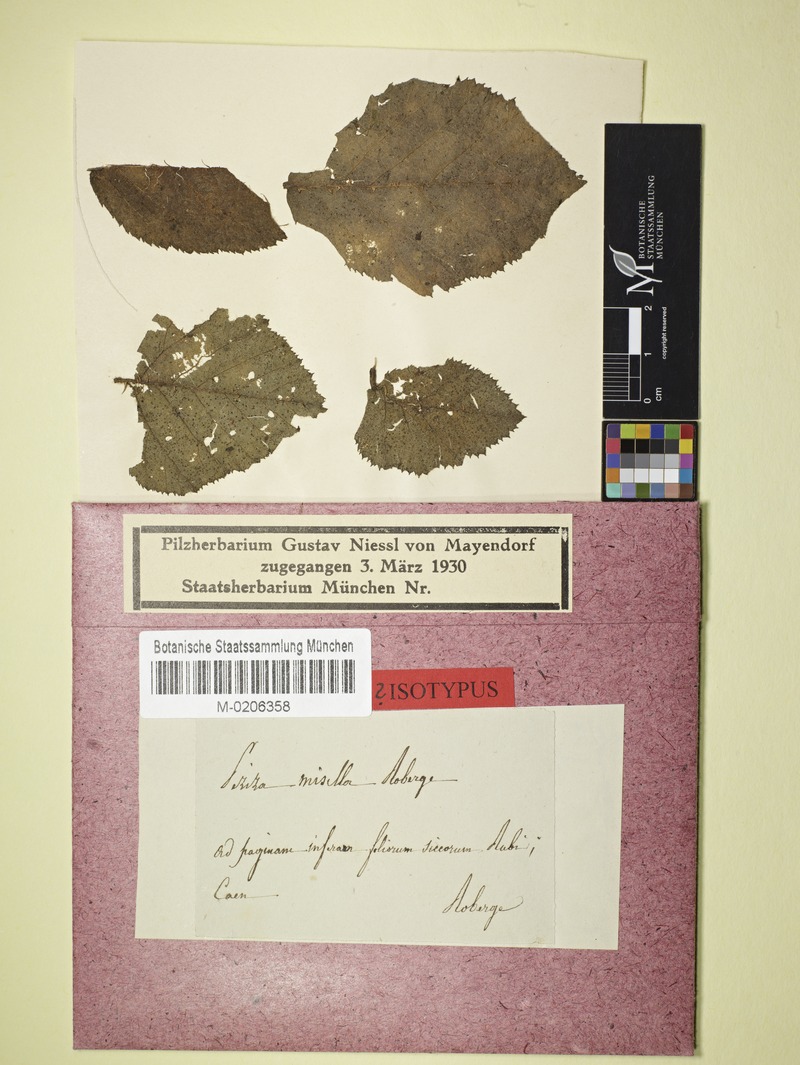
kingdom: Fungi
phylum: Ascomycota
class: Leotiomycetes
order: Helotiales
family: Hyphodiscaceae
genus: Fuscolachnum
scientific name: Fuscolachnum misellum
